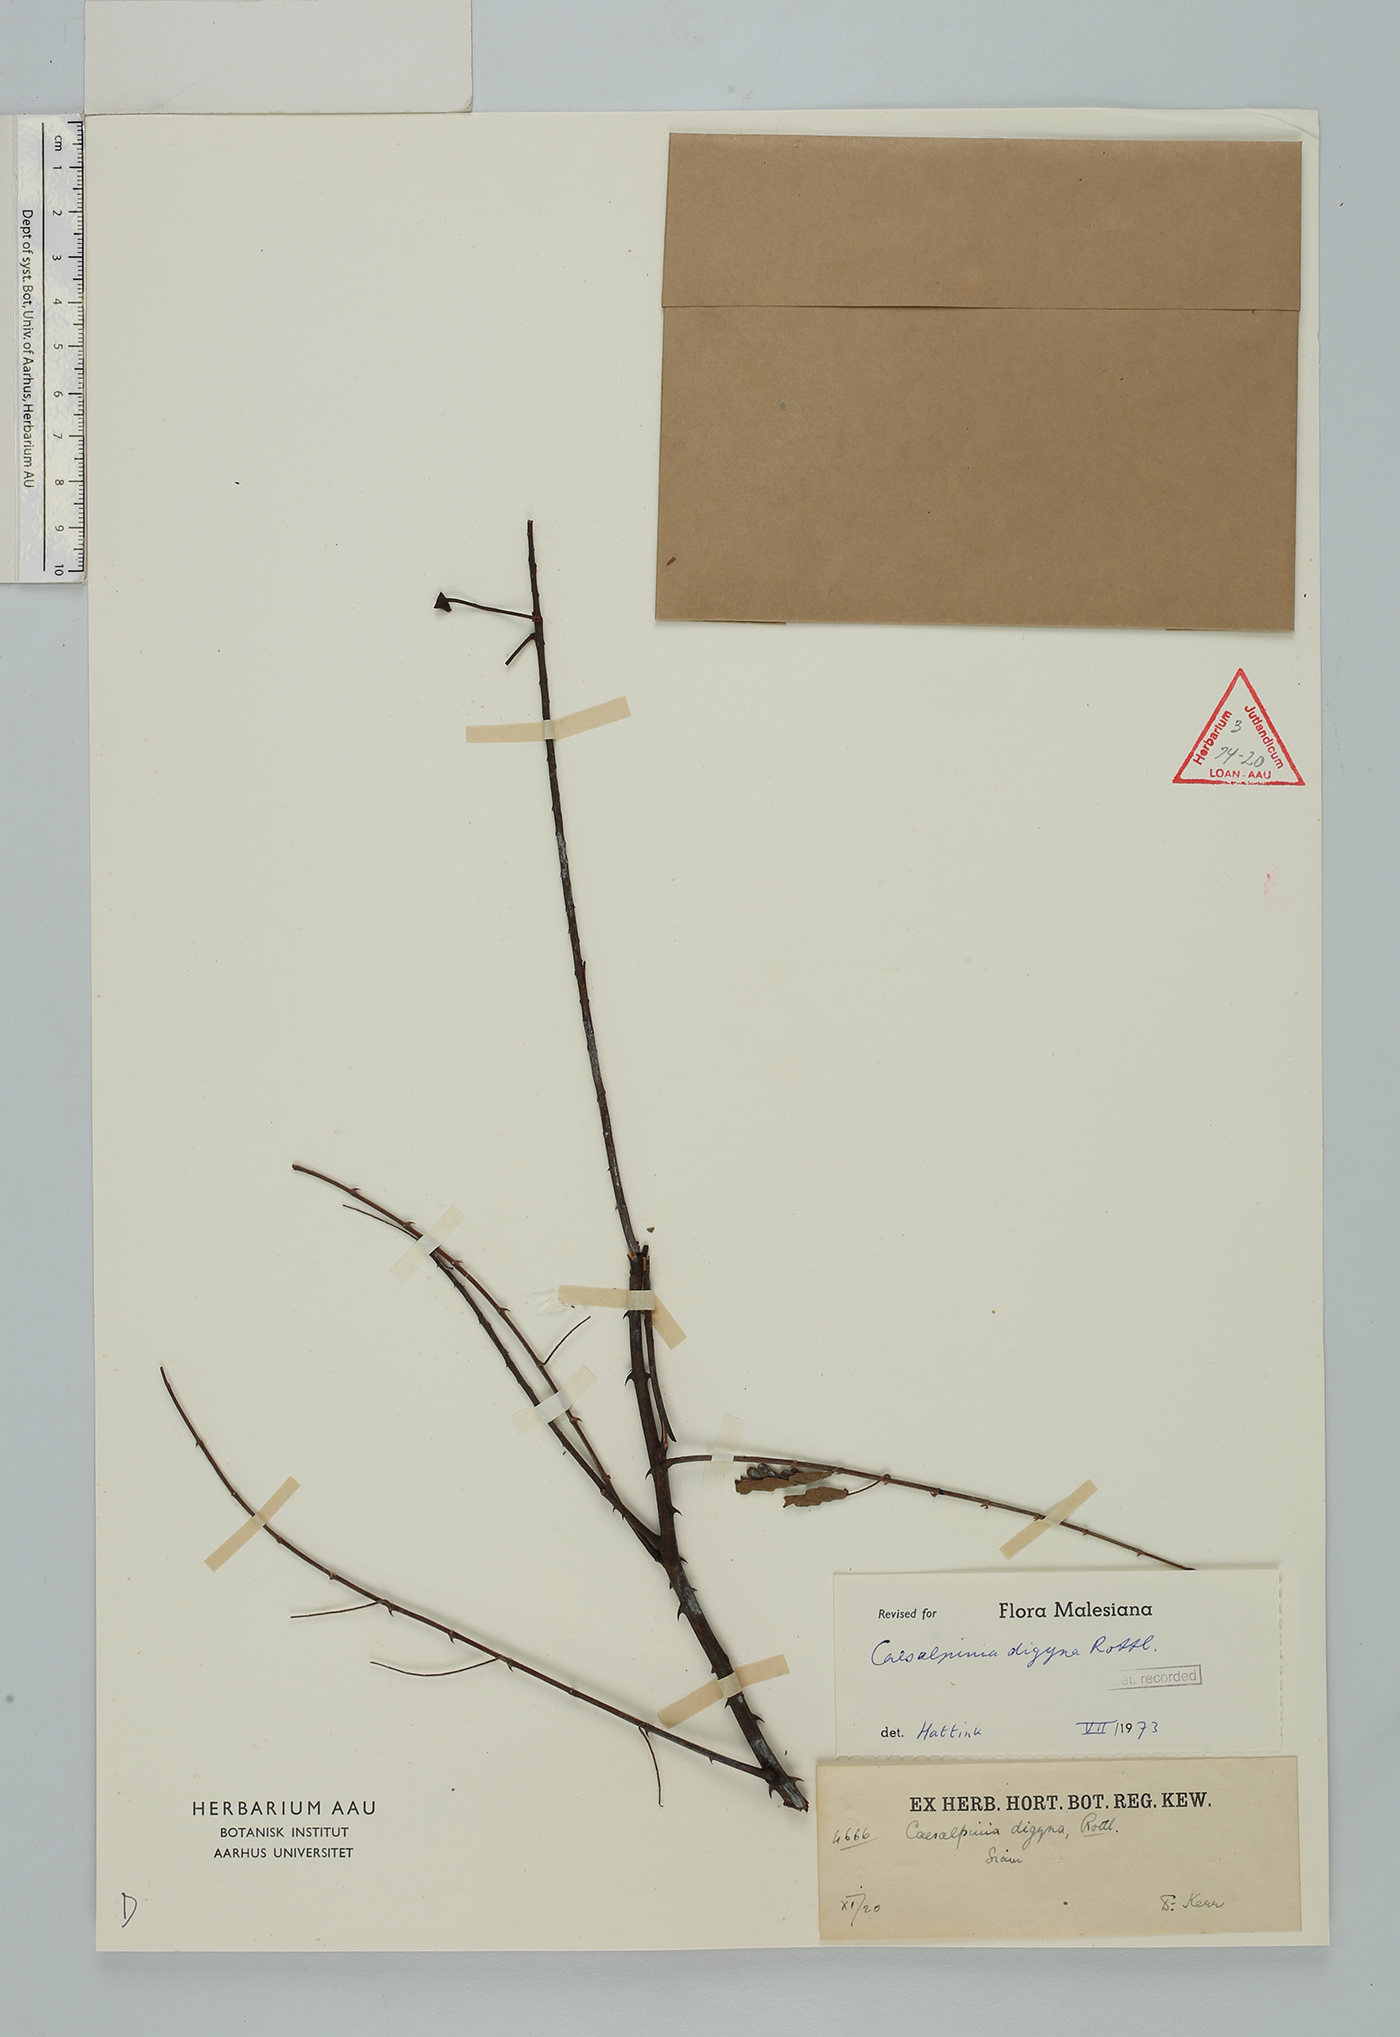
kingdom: Plantae
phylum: Tracheophyta
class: Magnoliopsida
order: Fabales
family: Fabaceae
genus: Moullava
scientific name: Moullava digyna
